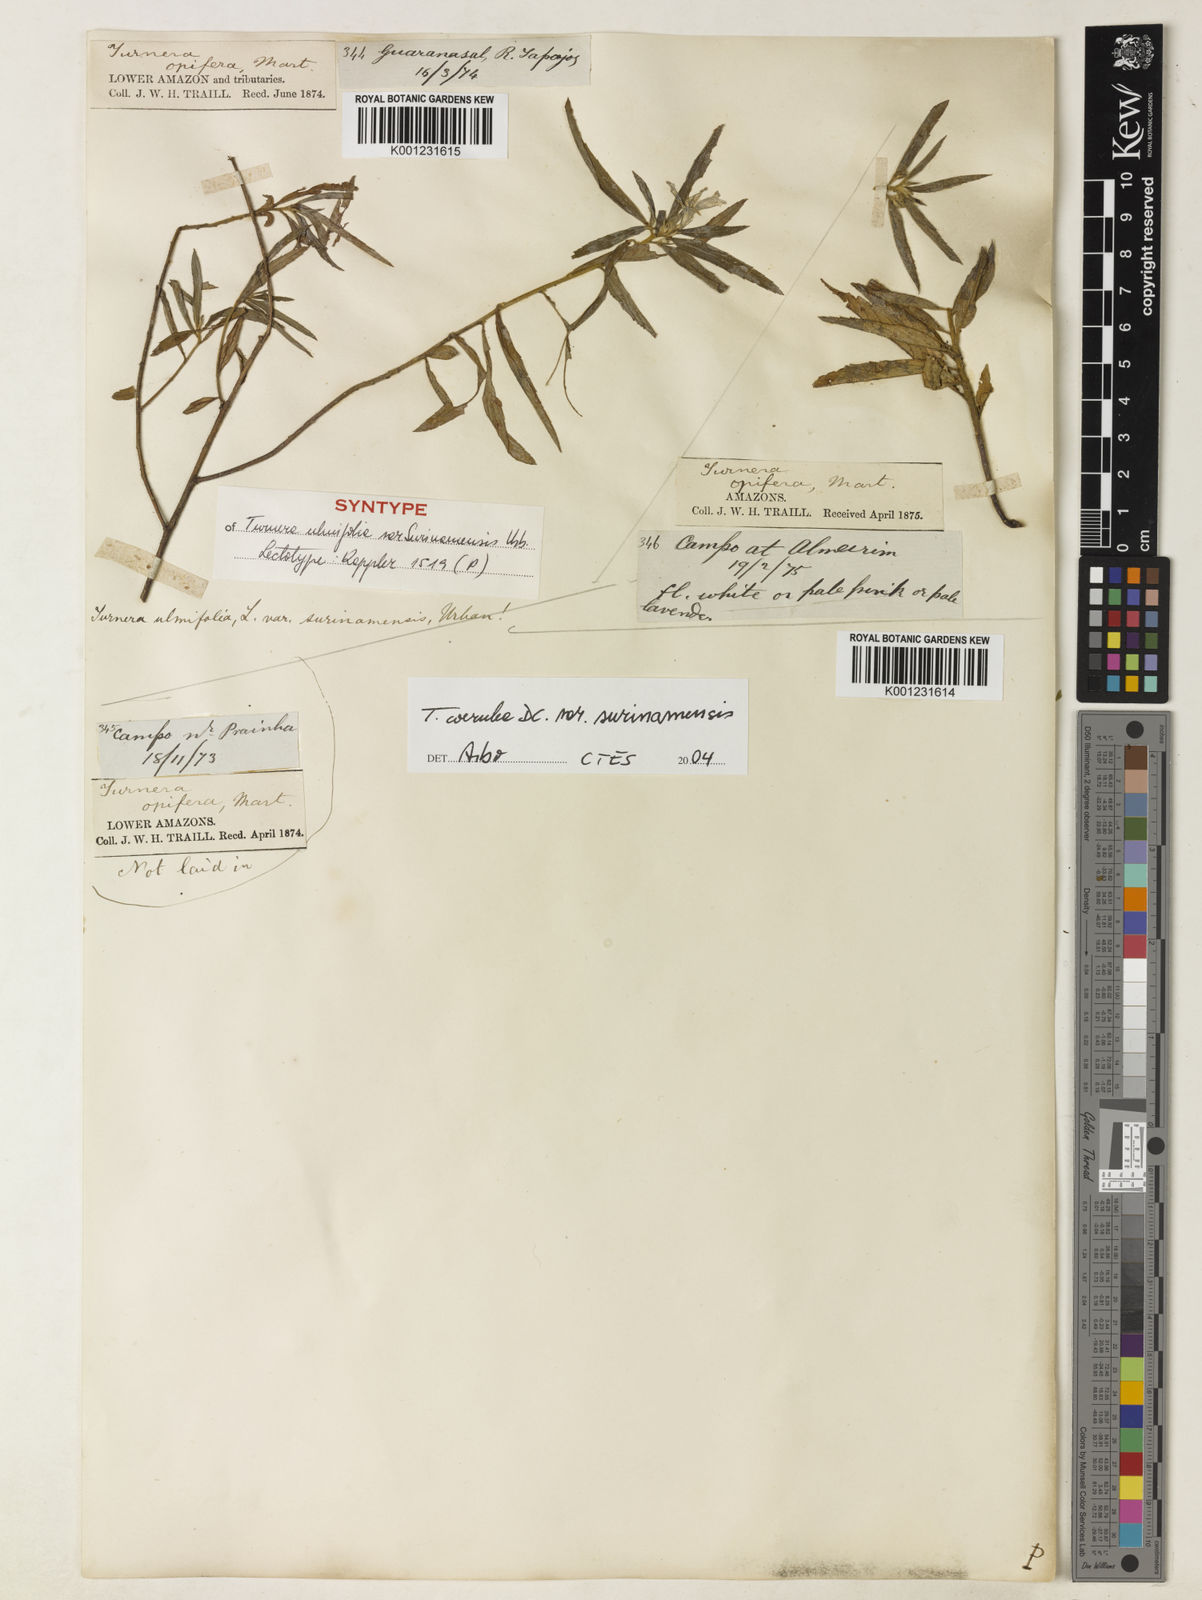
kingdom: Plantae
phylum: Tracheophyta
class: Magnoliopsida
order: Malpighiales
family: Turneraceae
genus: Turnera
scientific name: Turnera coerulea
